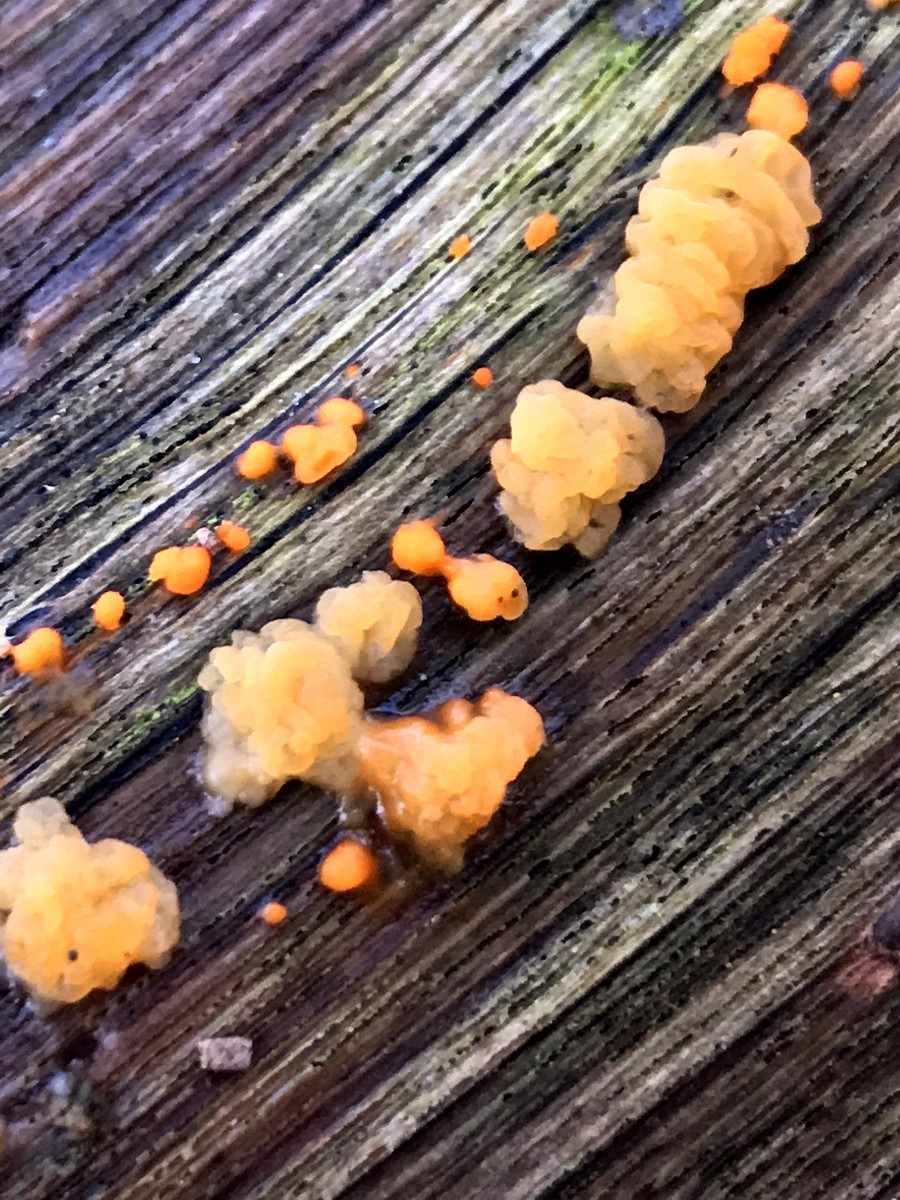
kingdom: Fungi
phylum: Basidiomycota
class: Dacrymycetes
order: Dacrymycetales
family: Dacrymycetaceae
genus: Dacrymyces
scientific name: Dacrymyces stillatus
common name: almindelig tåresvamp
